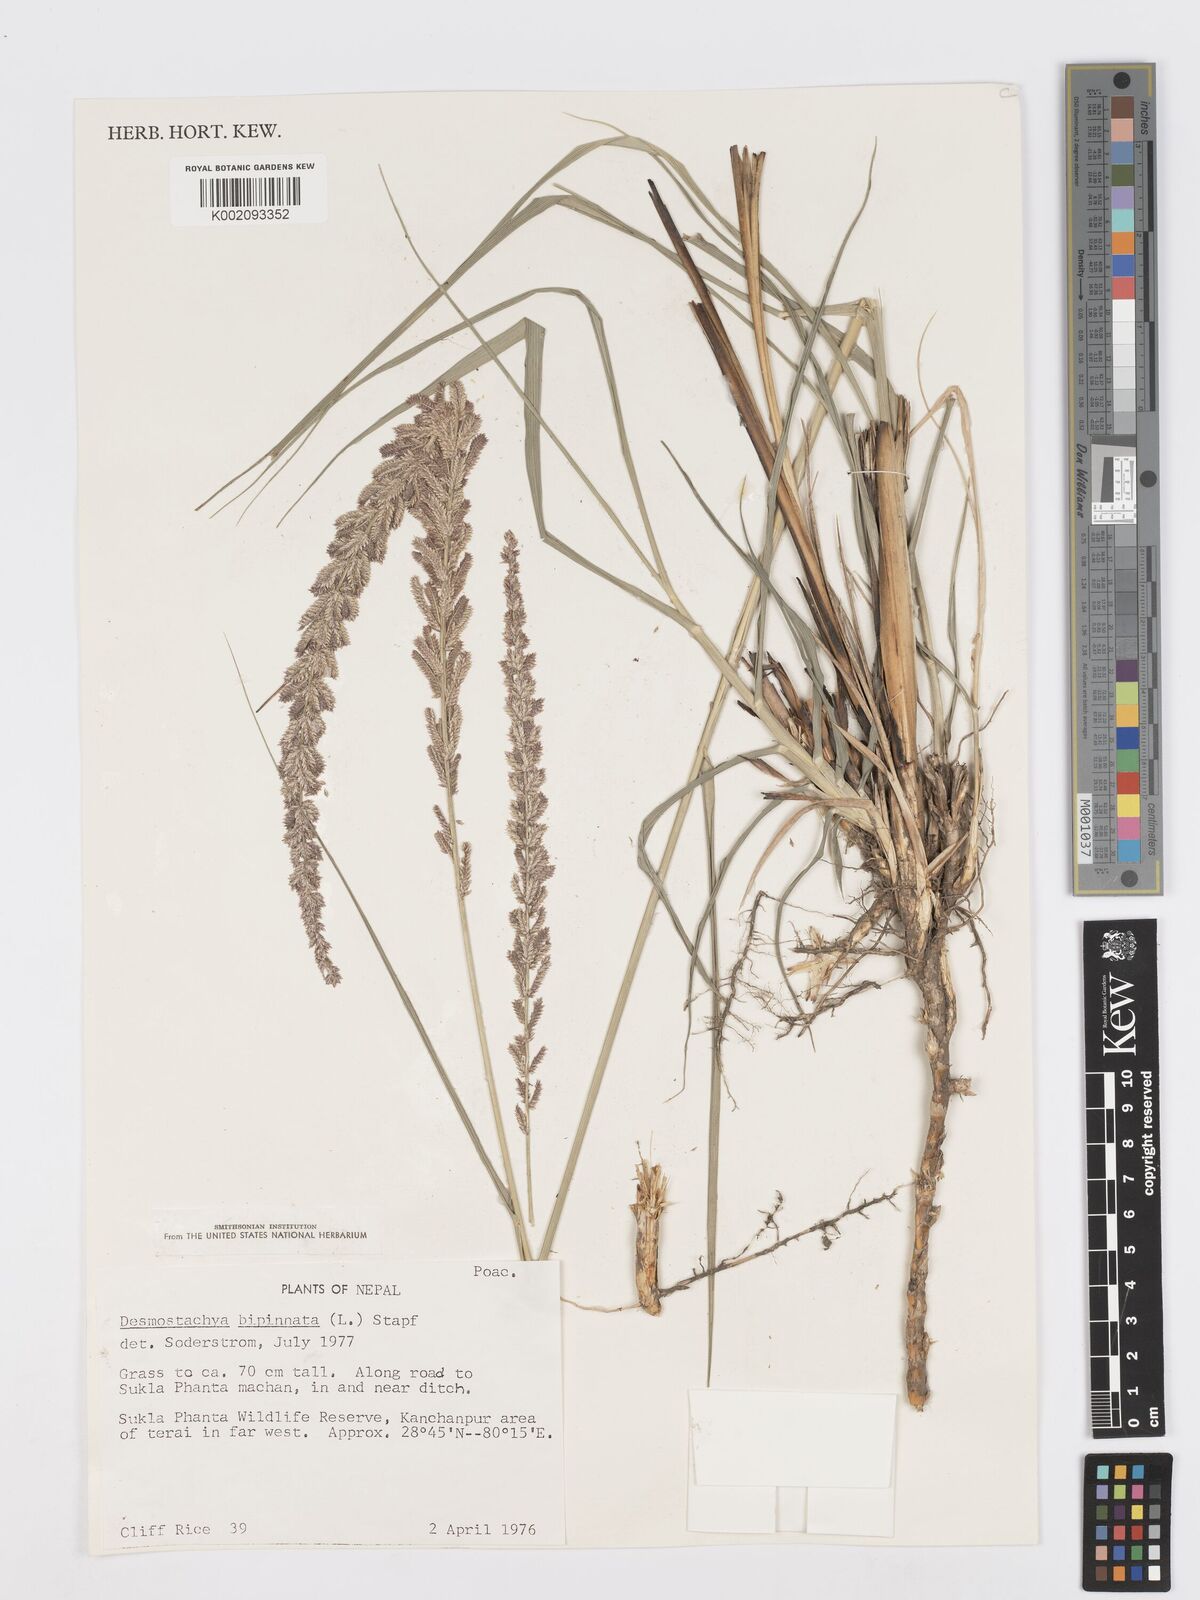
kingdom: Plantae
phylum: Tracheophyta
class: Liliopsida
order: Poales
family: Poaceae
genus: Desmostachya
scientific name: Desmostachya bipinnata
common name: Crowfoot grass
